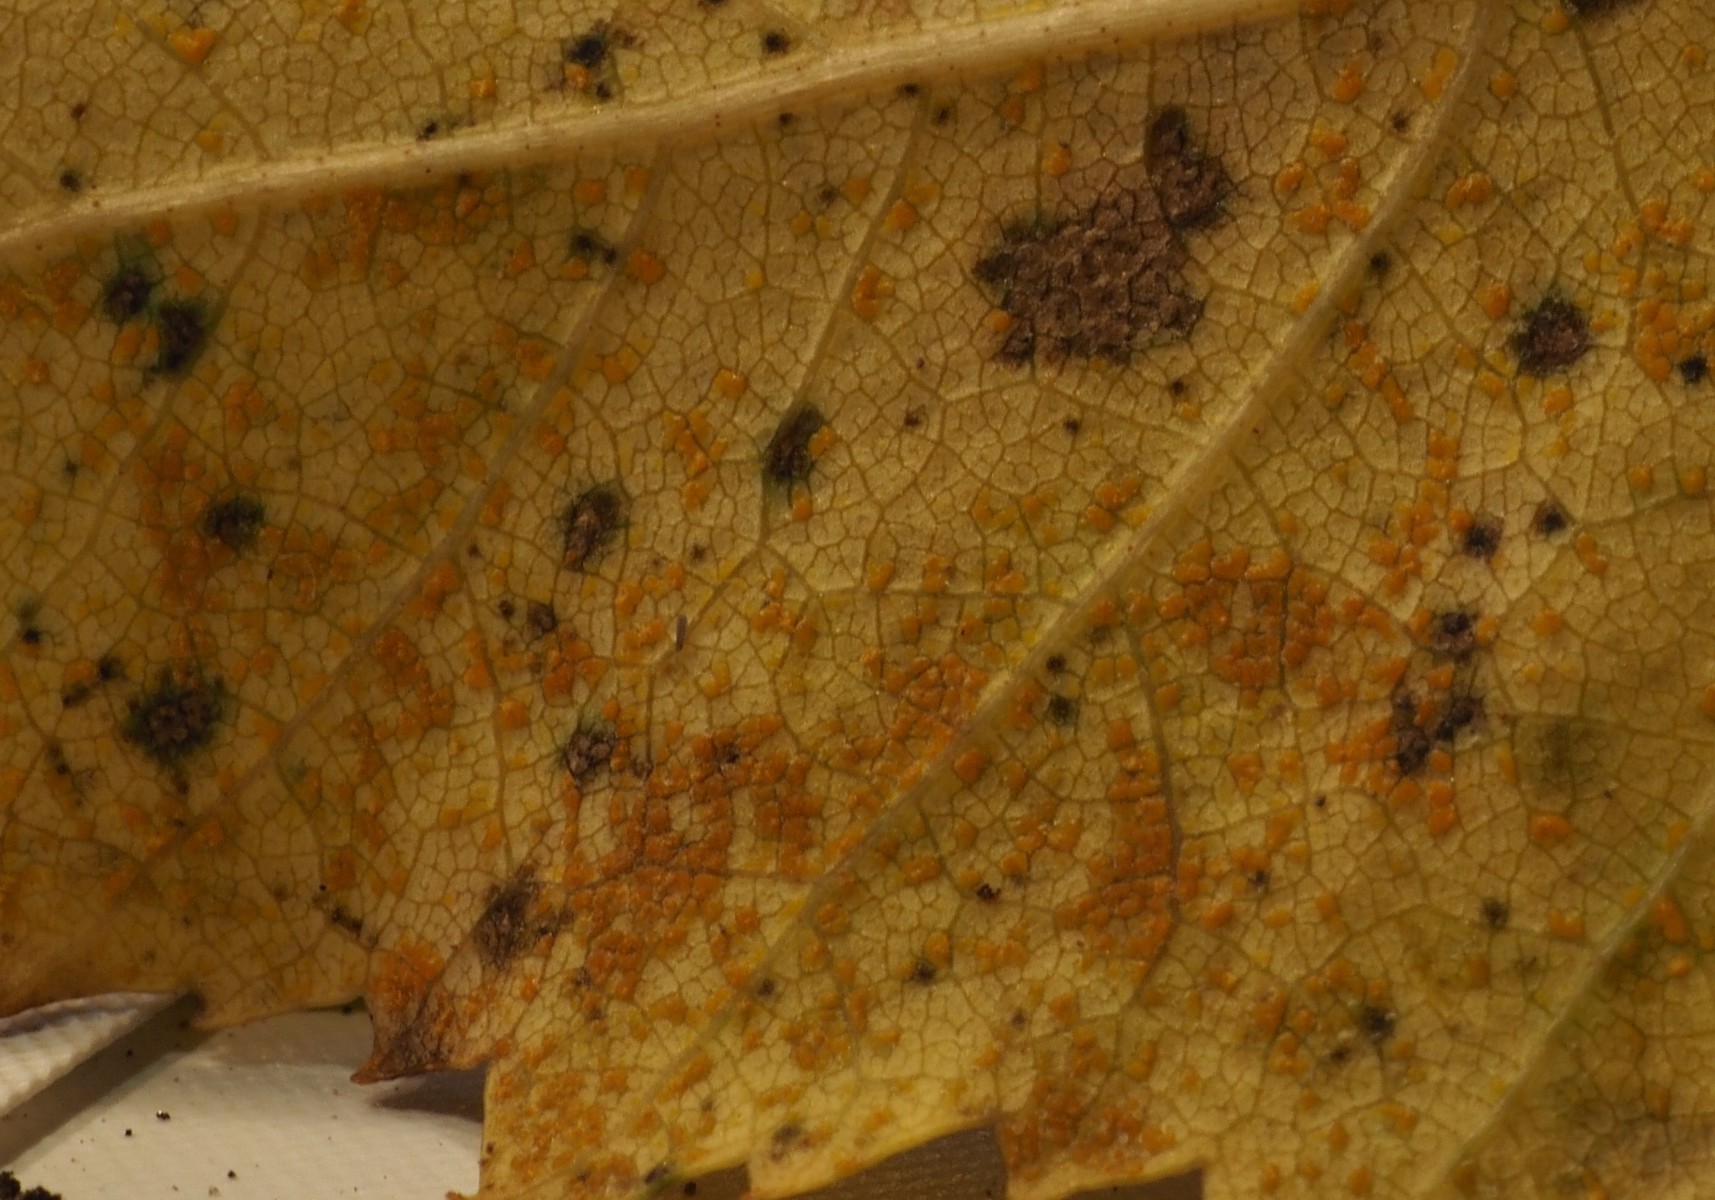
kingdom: Fungi
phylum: Basidiomycota
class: Pucciniomycetes
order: Pucciniales
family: Pucciniastraceae
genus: Melampsoridium
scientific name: Melampsoridium betulinum
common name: Birch rust
